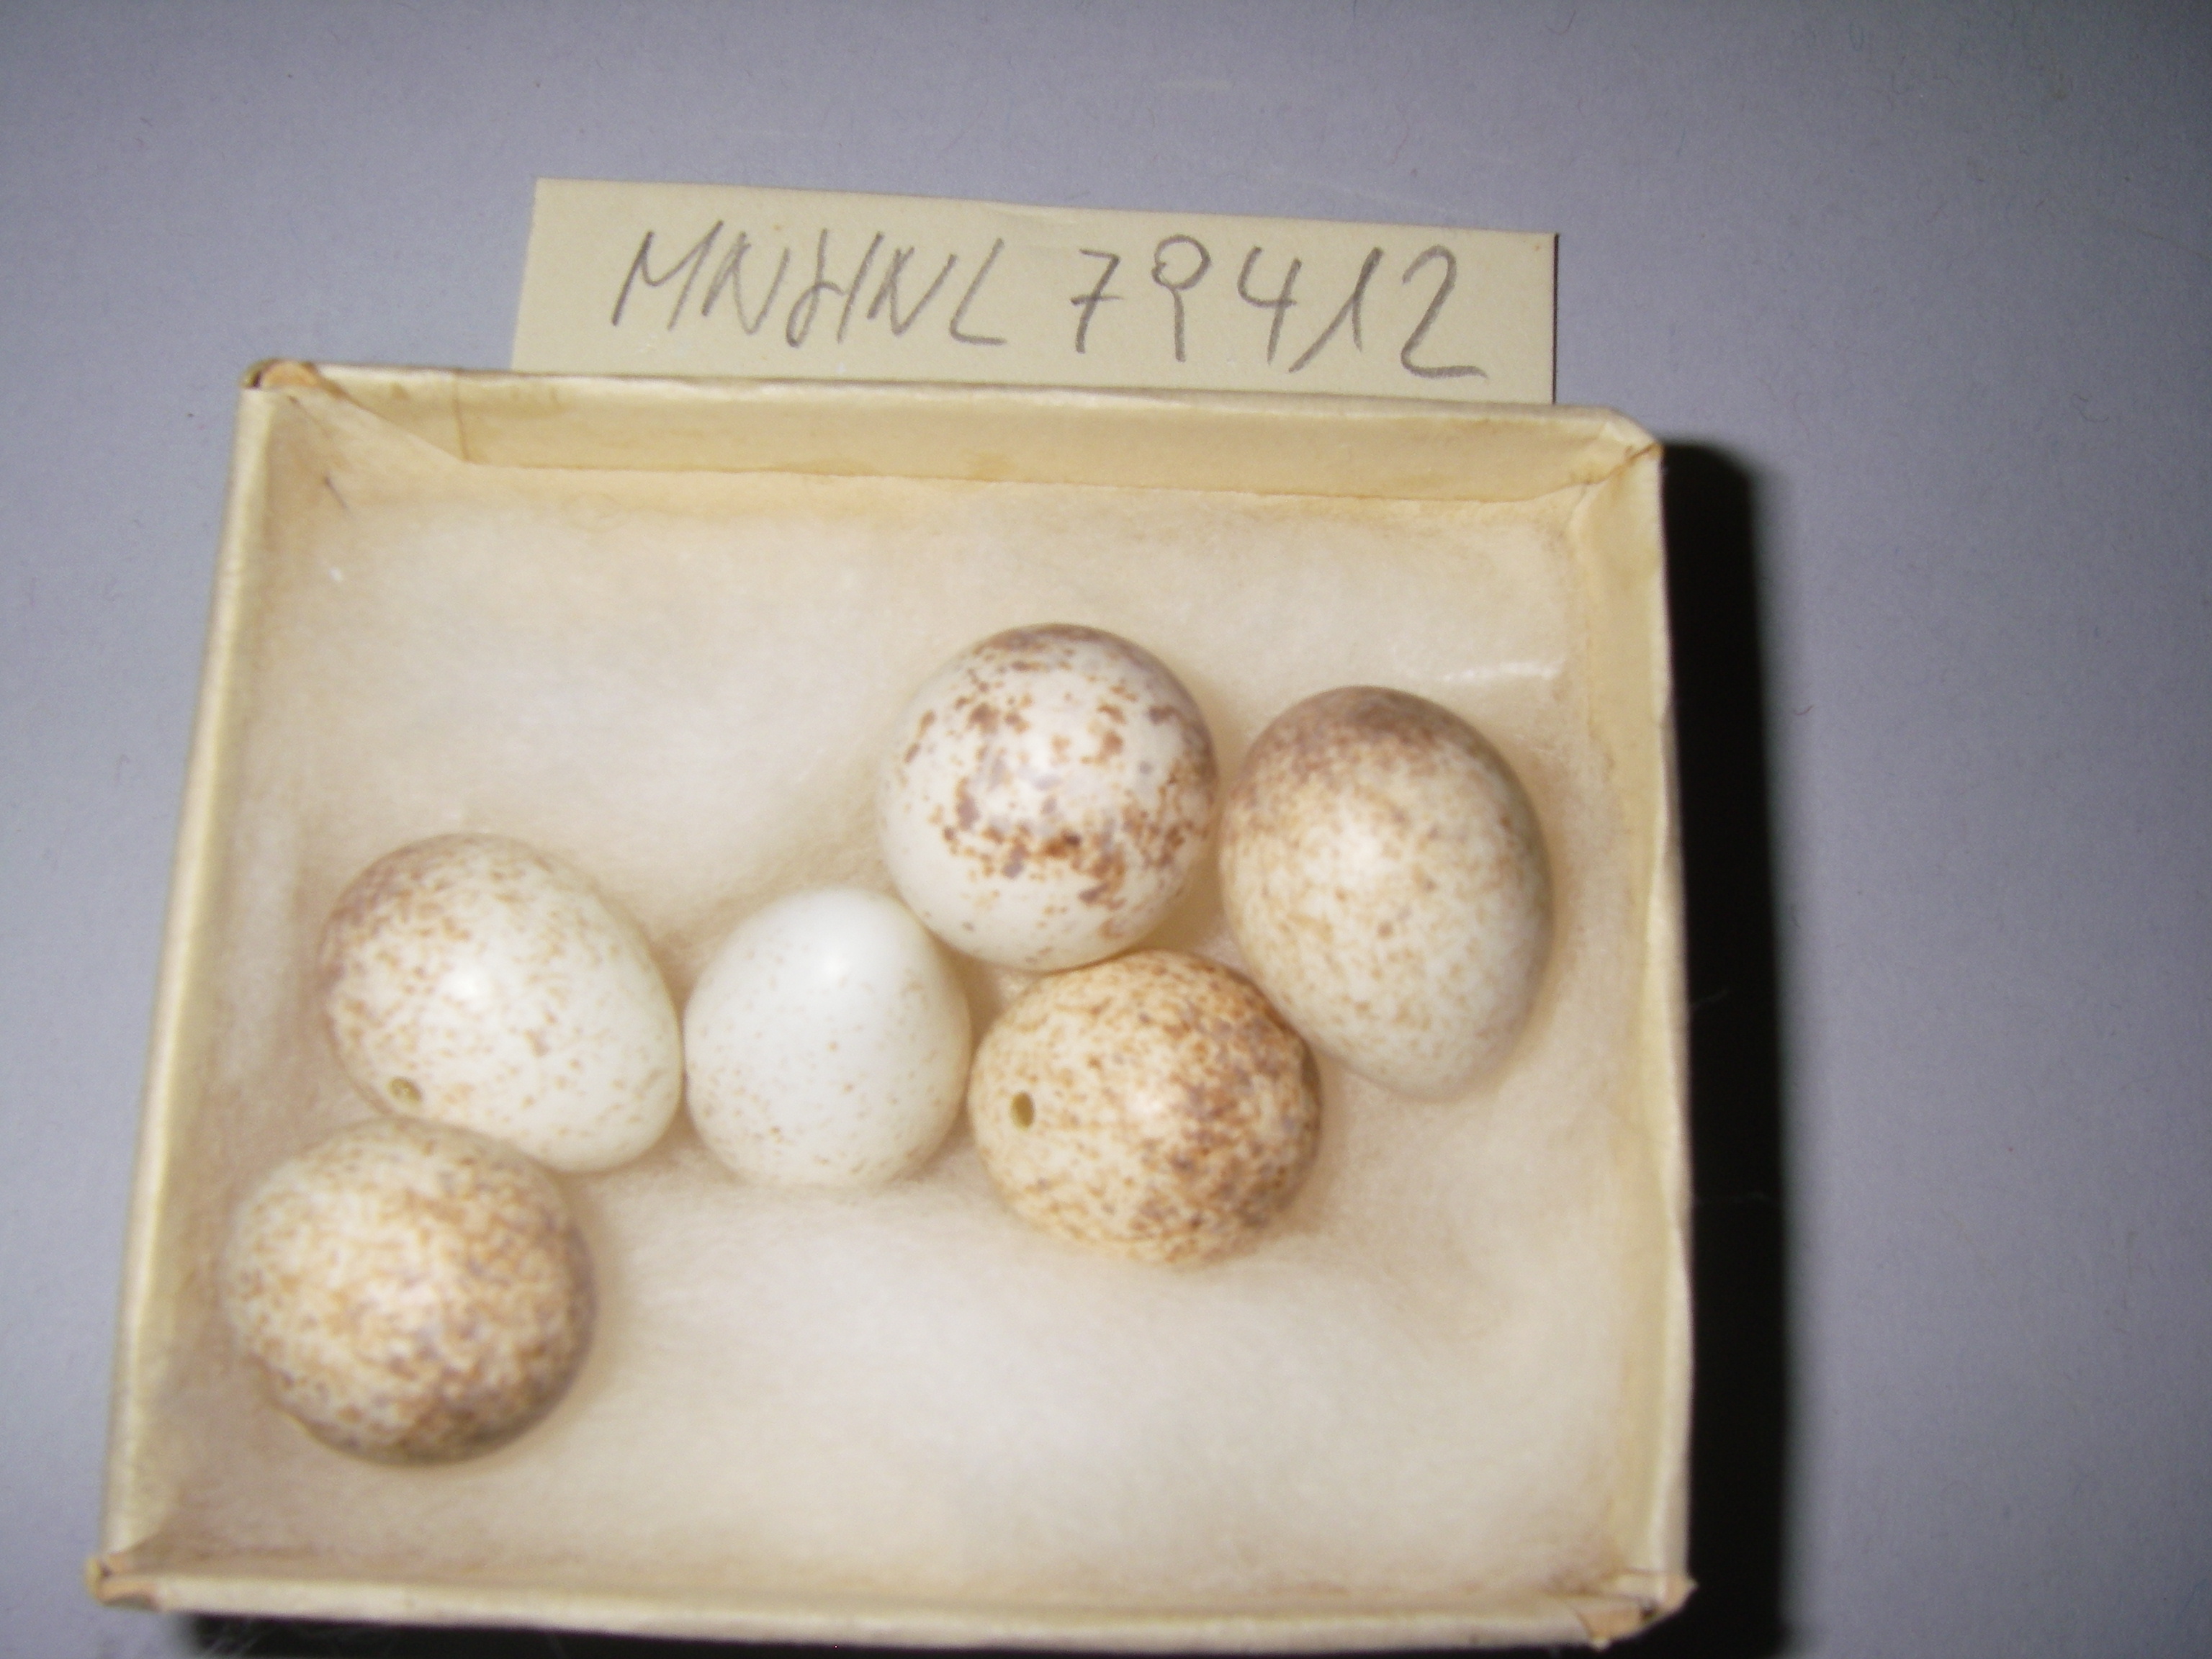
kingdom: Animalia
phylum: Chordata
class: Aves
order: Passeriformes
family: Muscicapidae
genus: Erithacus
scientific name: Erithacus rubecula
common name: European robin
